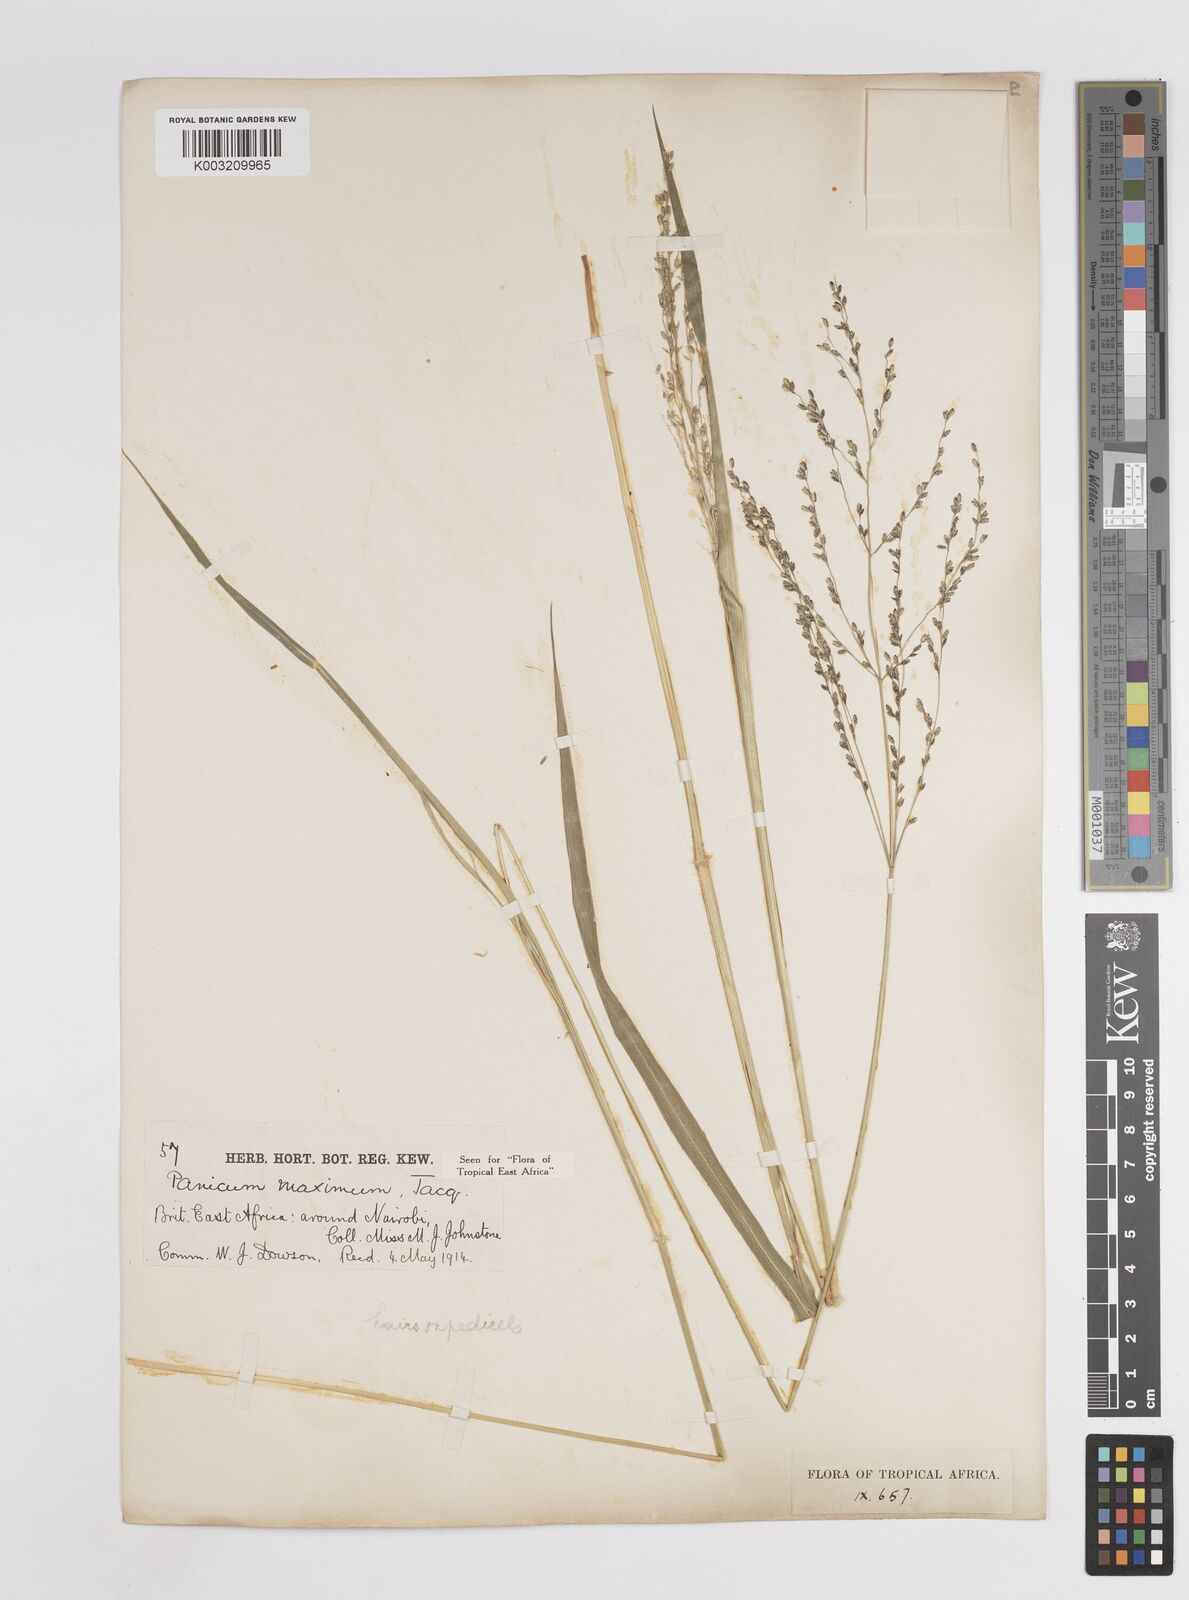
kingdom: Plantae
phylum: Tracheophyta
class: Liliopsida
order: Poales
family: Poaceae
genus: Megathyrsus
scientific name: Megathyrsus maximus
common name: Guineagrass
